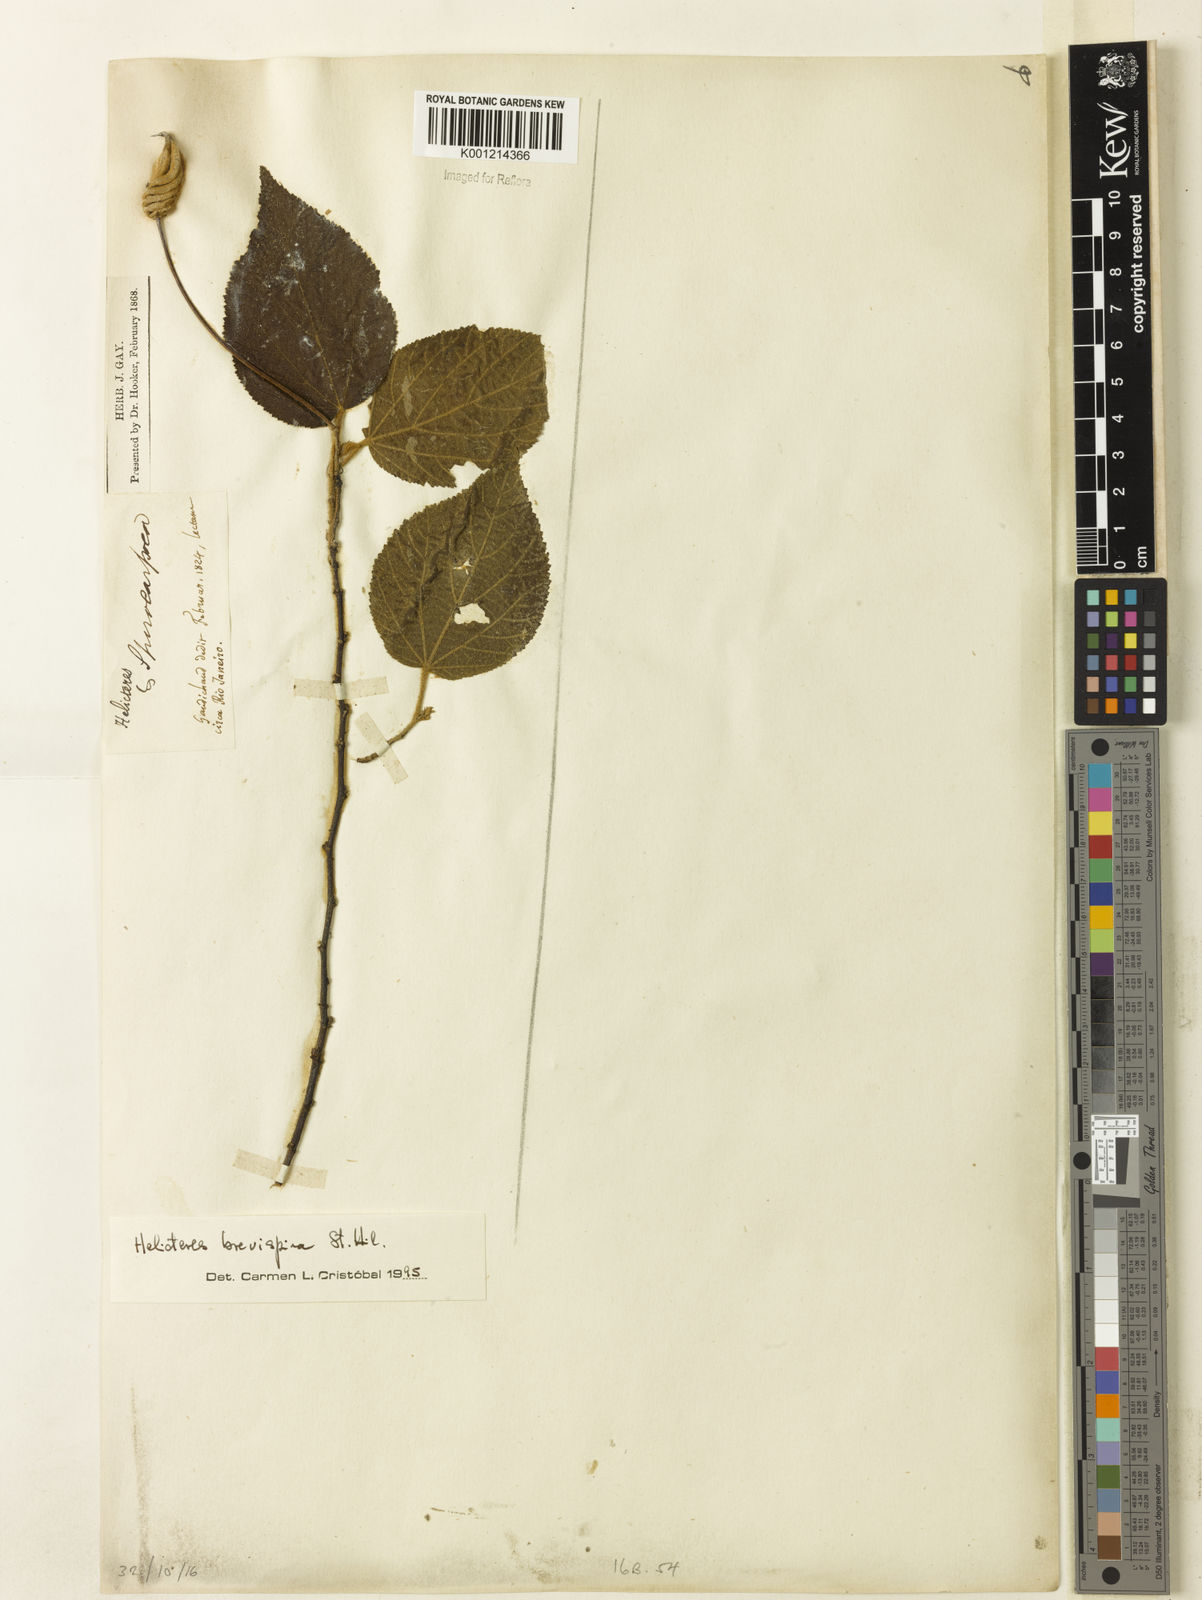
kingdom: Plantae
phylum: Tracheophyta
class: Magnoliopsida
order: Malvales
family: Malvaceae
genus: Helicteres
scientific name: Helicteres
